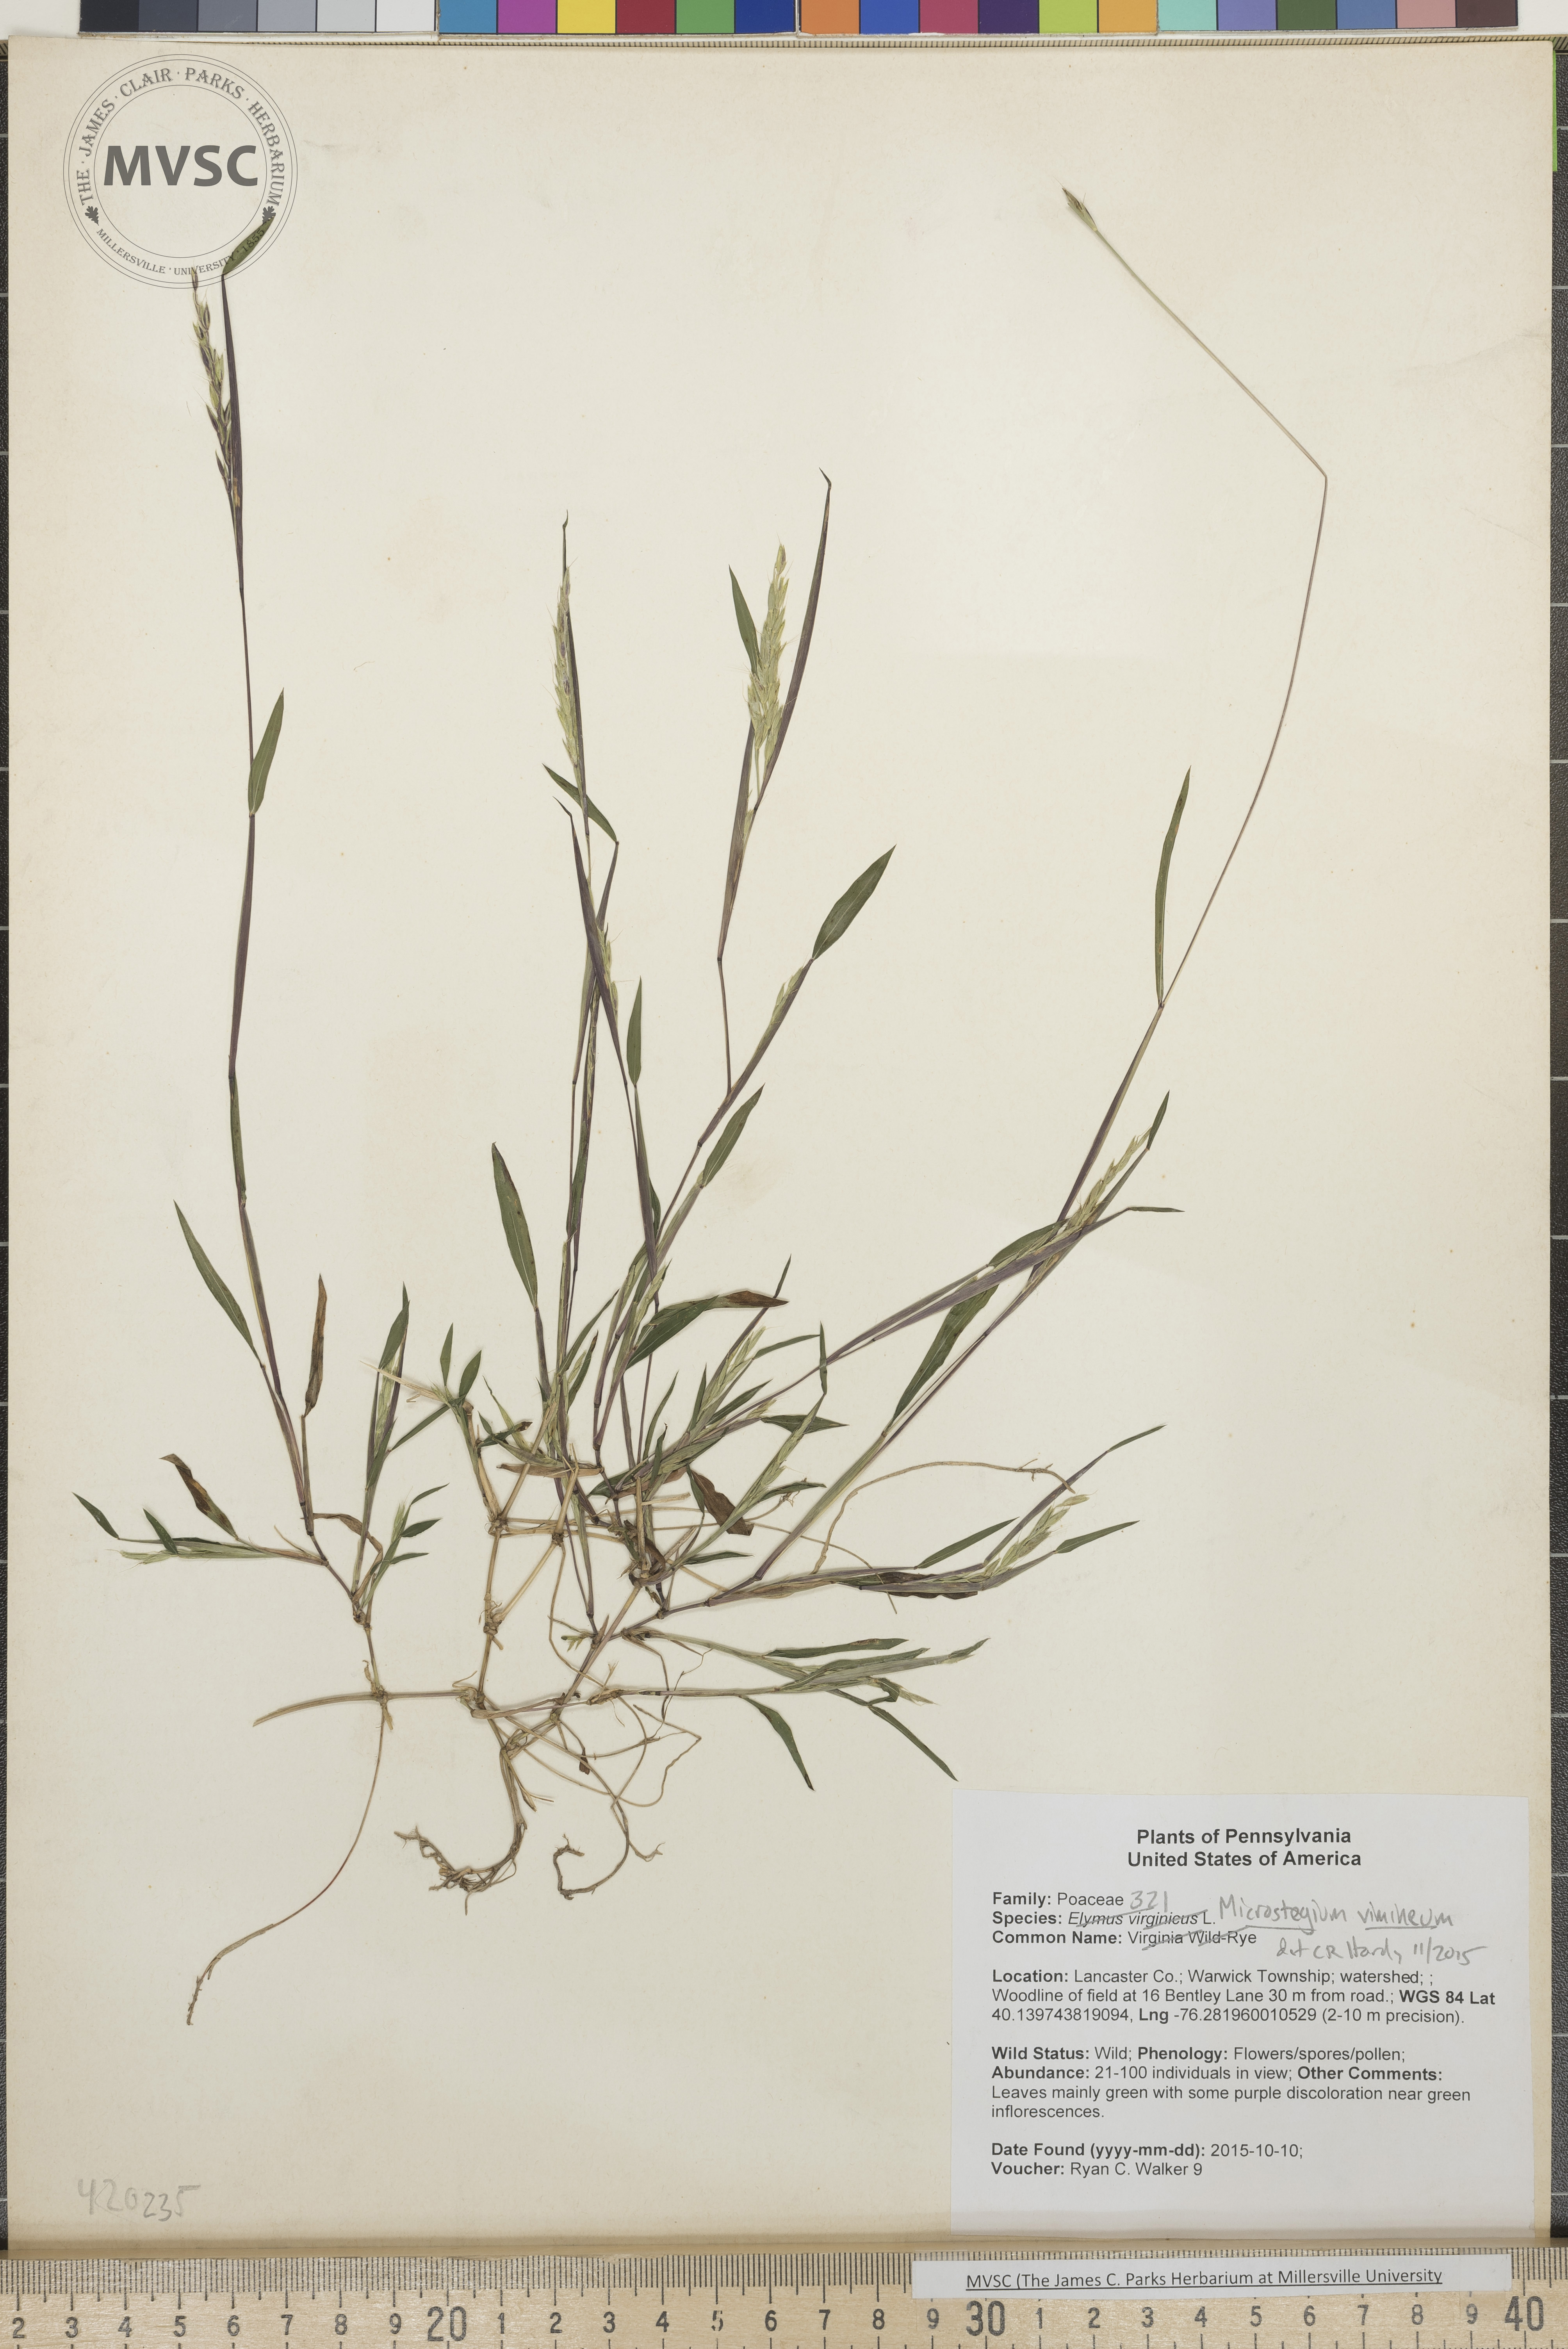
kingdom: Plantae
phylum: Tracheophyta
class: Liliopsida
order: Poales
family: Poaceae
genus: Microstegium
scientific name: Microstegium vimineum
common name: Japanese Stiltgrass
